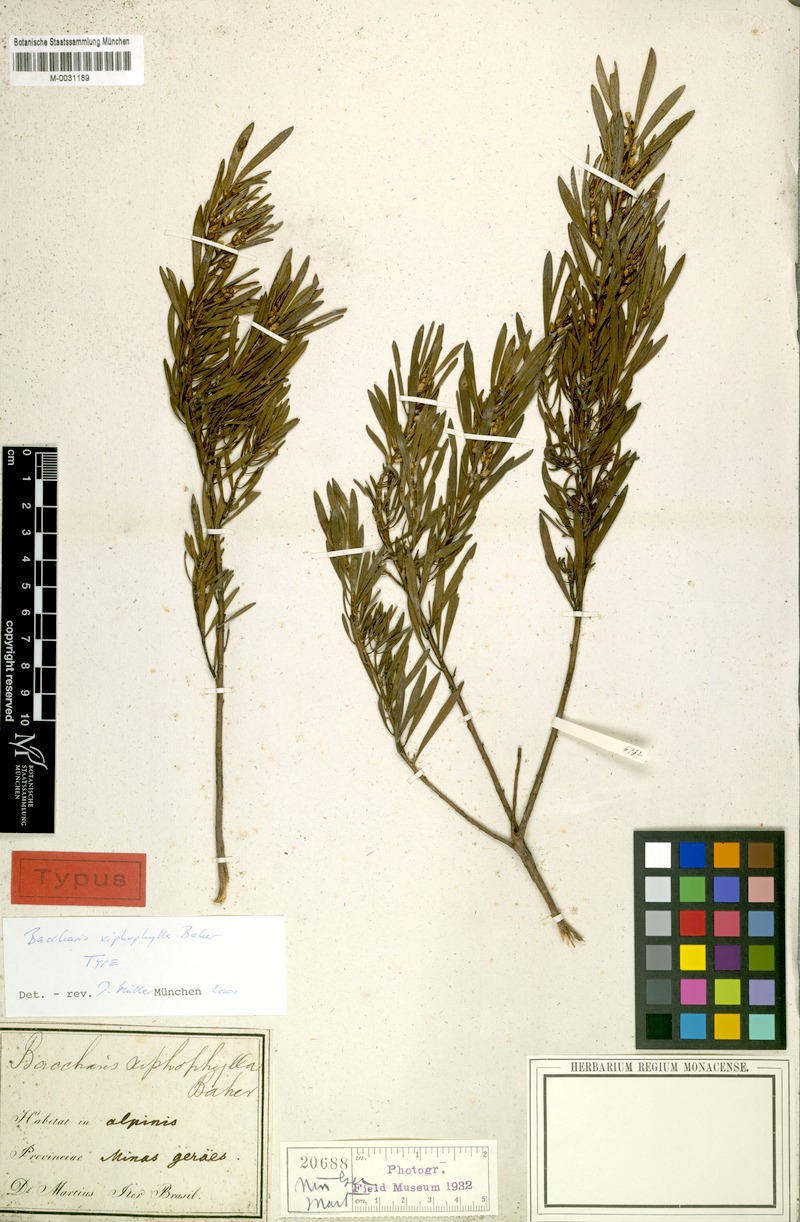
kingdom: Plantae
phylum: Tracheophyta
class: Magnoliopsida
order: Asterales
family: Asteraceae
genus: Baccharis
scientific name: Baccharis myricifolia
